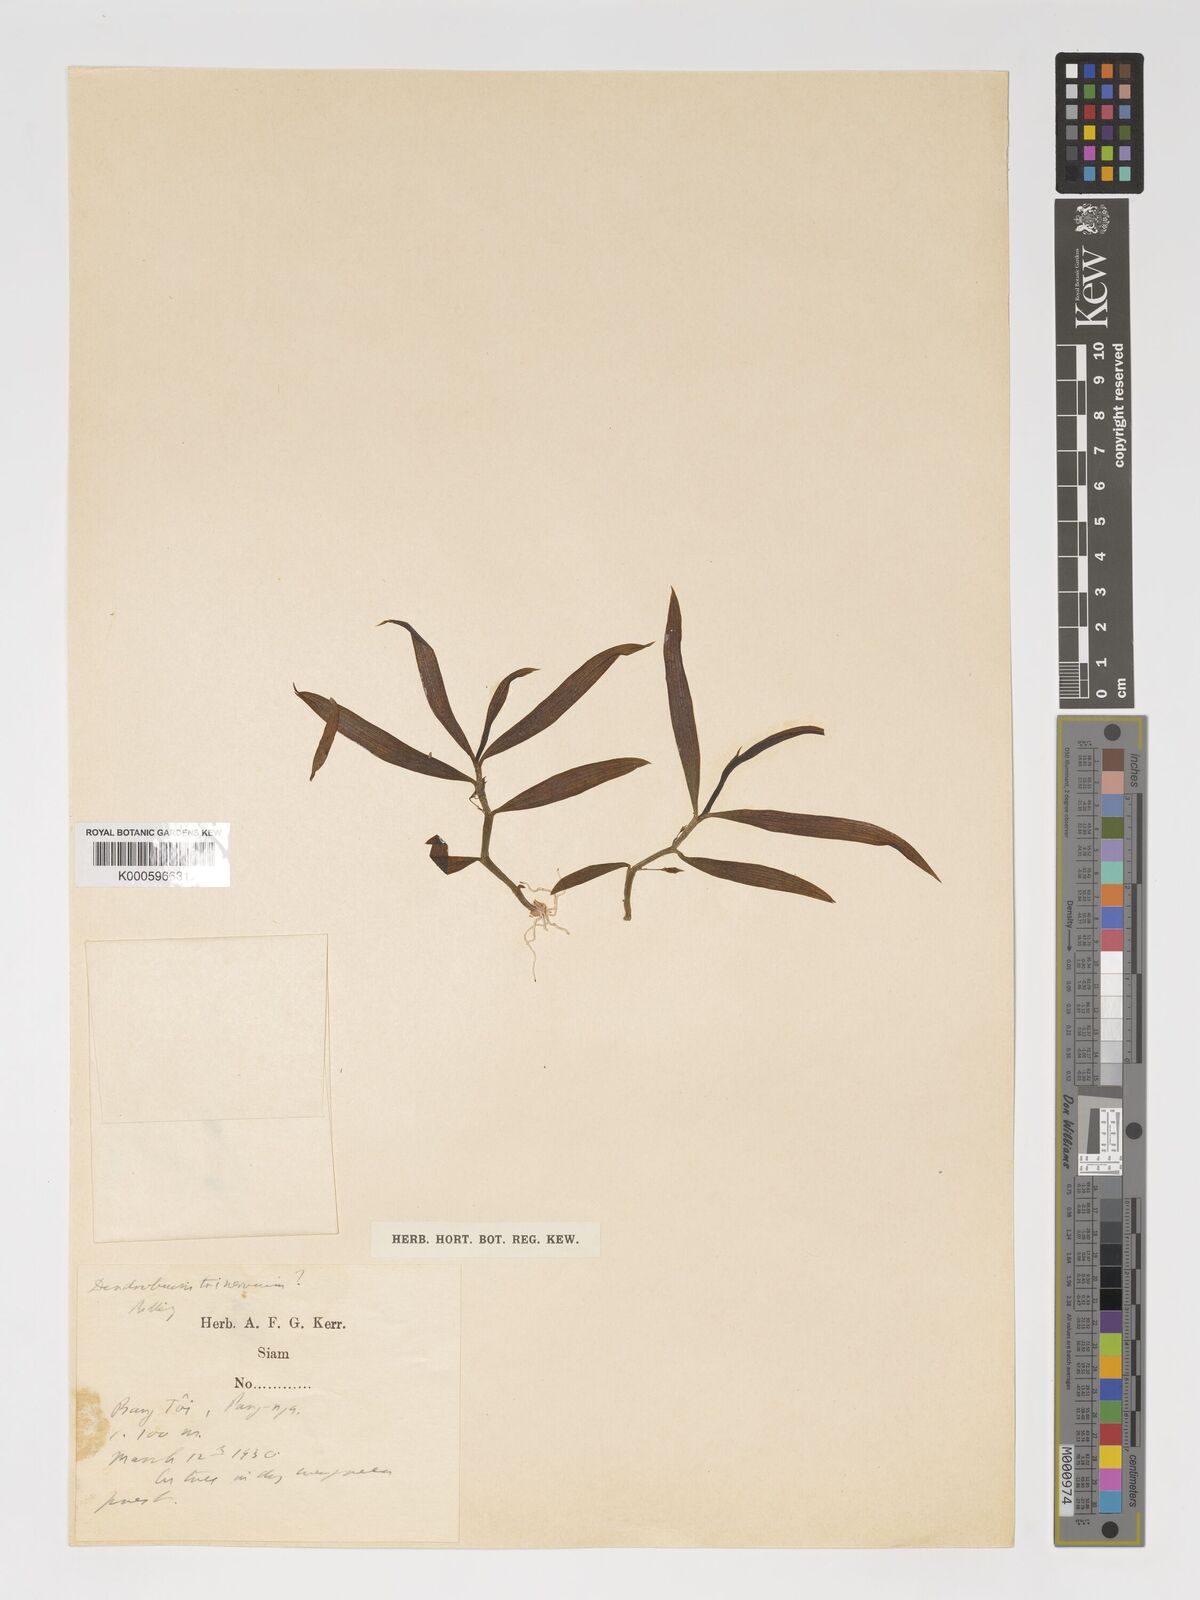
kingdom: Plantae
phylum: Tracheophyta
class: Liliopsida
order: Asparagales
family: Orchidaceae
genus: Dendrobium
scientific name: Dendrobium trinervium
